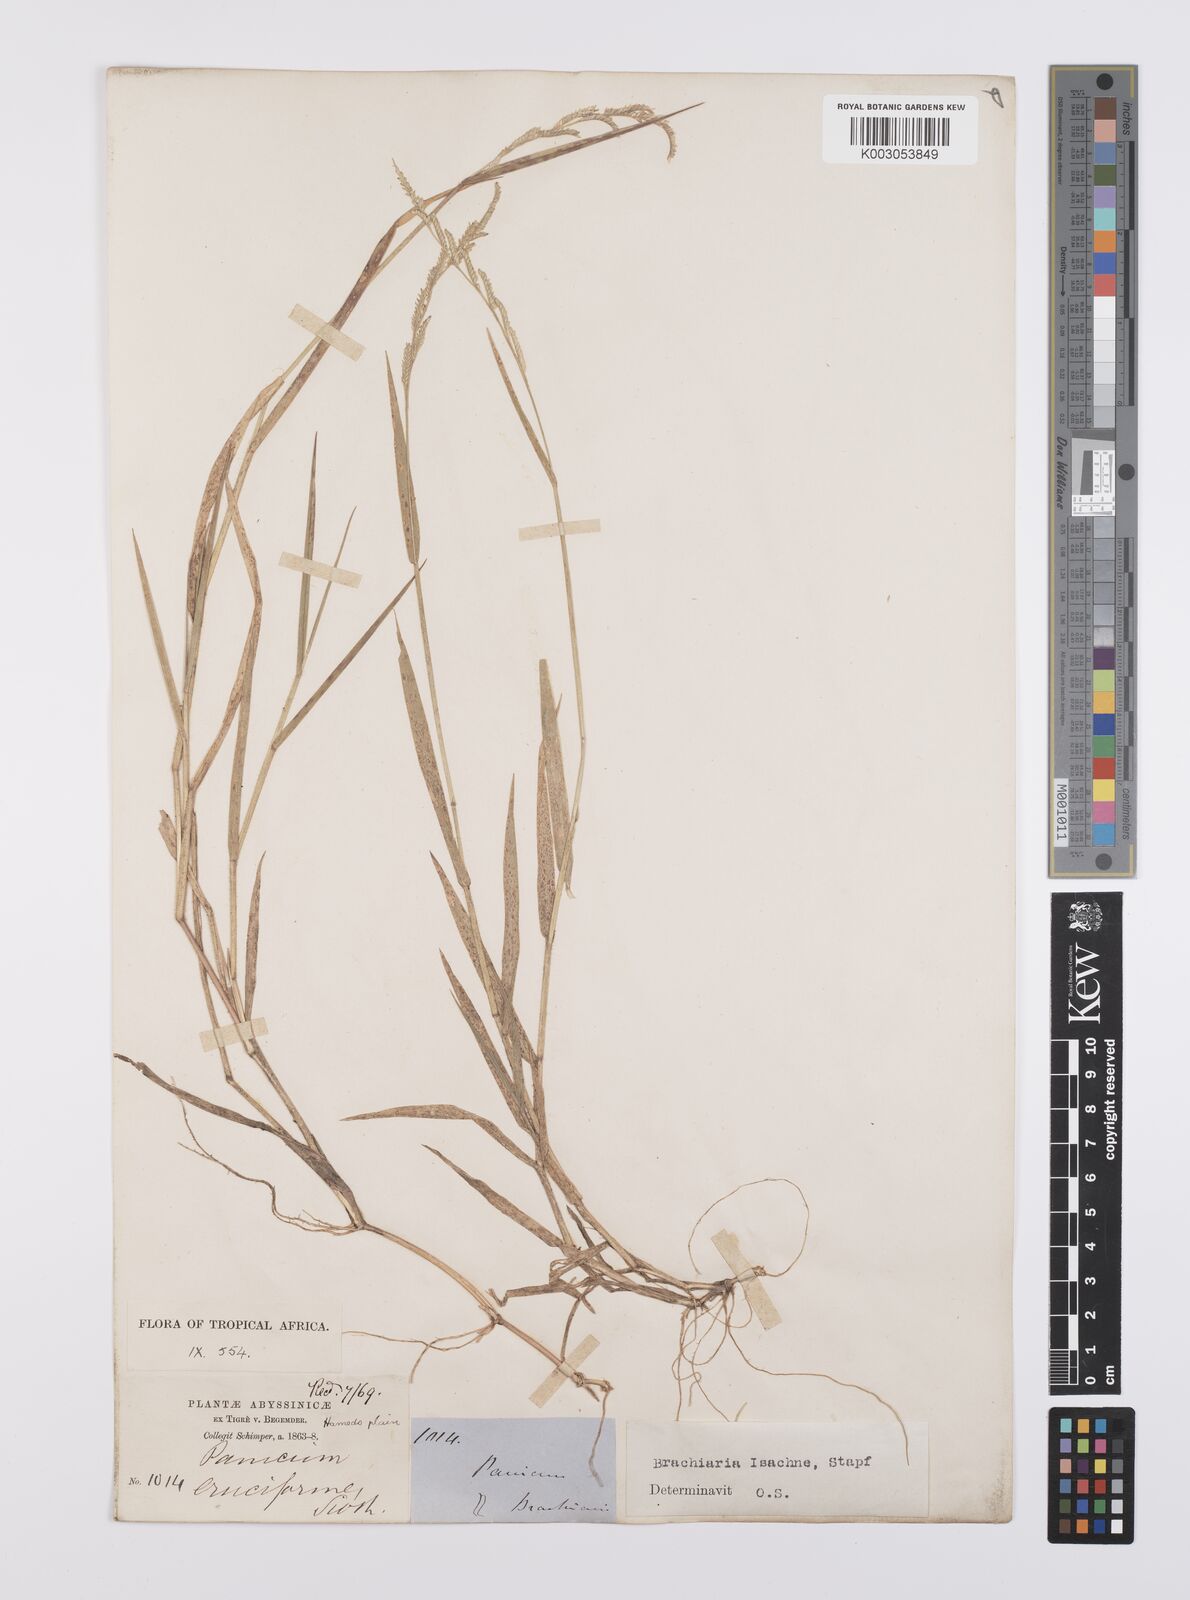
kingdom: Plantae
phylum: Tracheophyta
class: Liliopsida
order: Poales
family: Poaceae
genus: Moorochloa
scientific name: Moorochloa eruciformis
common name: Sweet signalgrass
